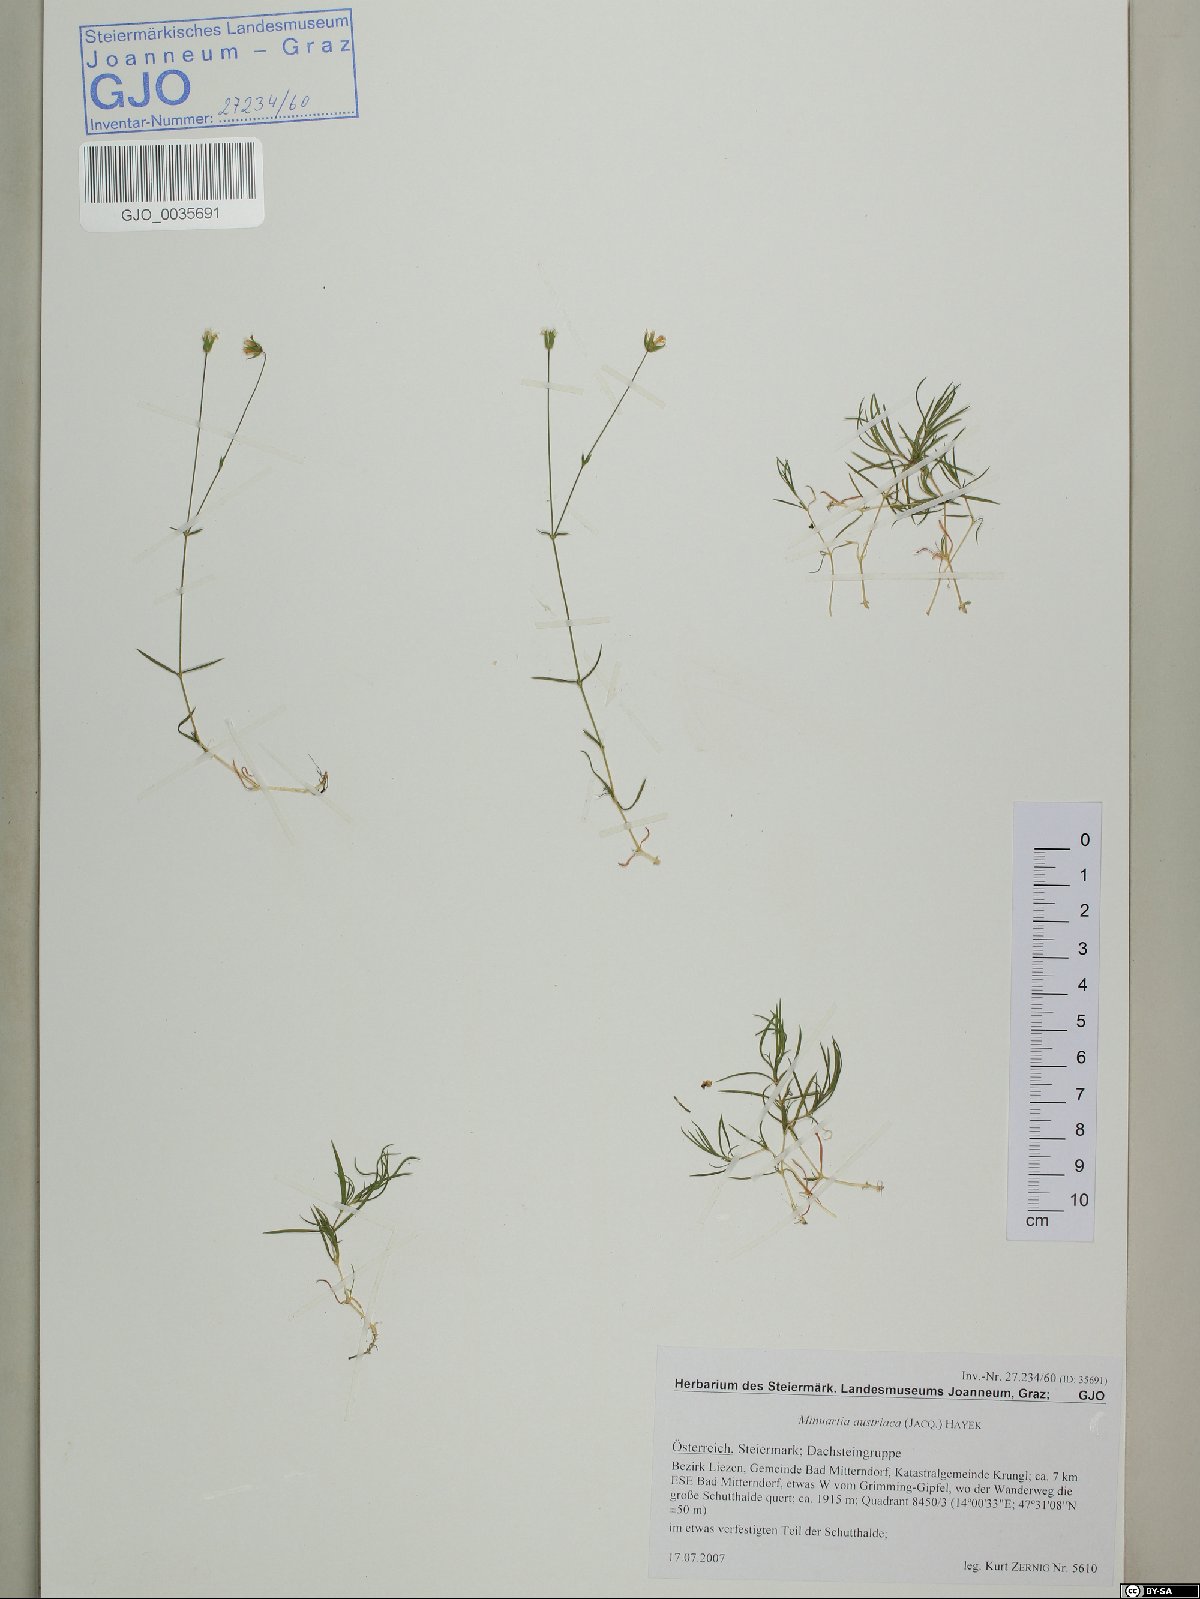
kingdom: Plantae
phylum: Tracheophyta
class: Magnoliopsida
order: Caryophyllales
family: Caryophyllaceae
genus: Sabulina
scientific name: Sabulina austriaca
